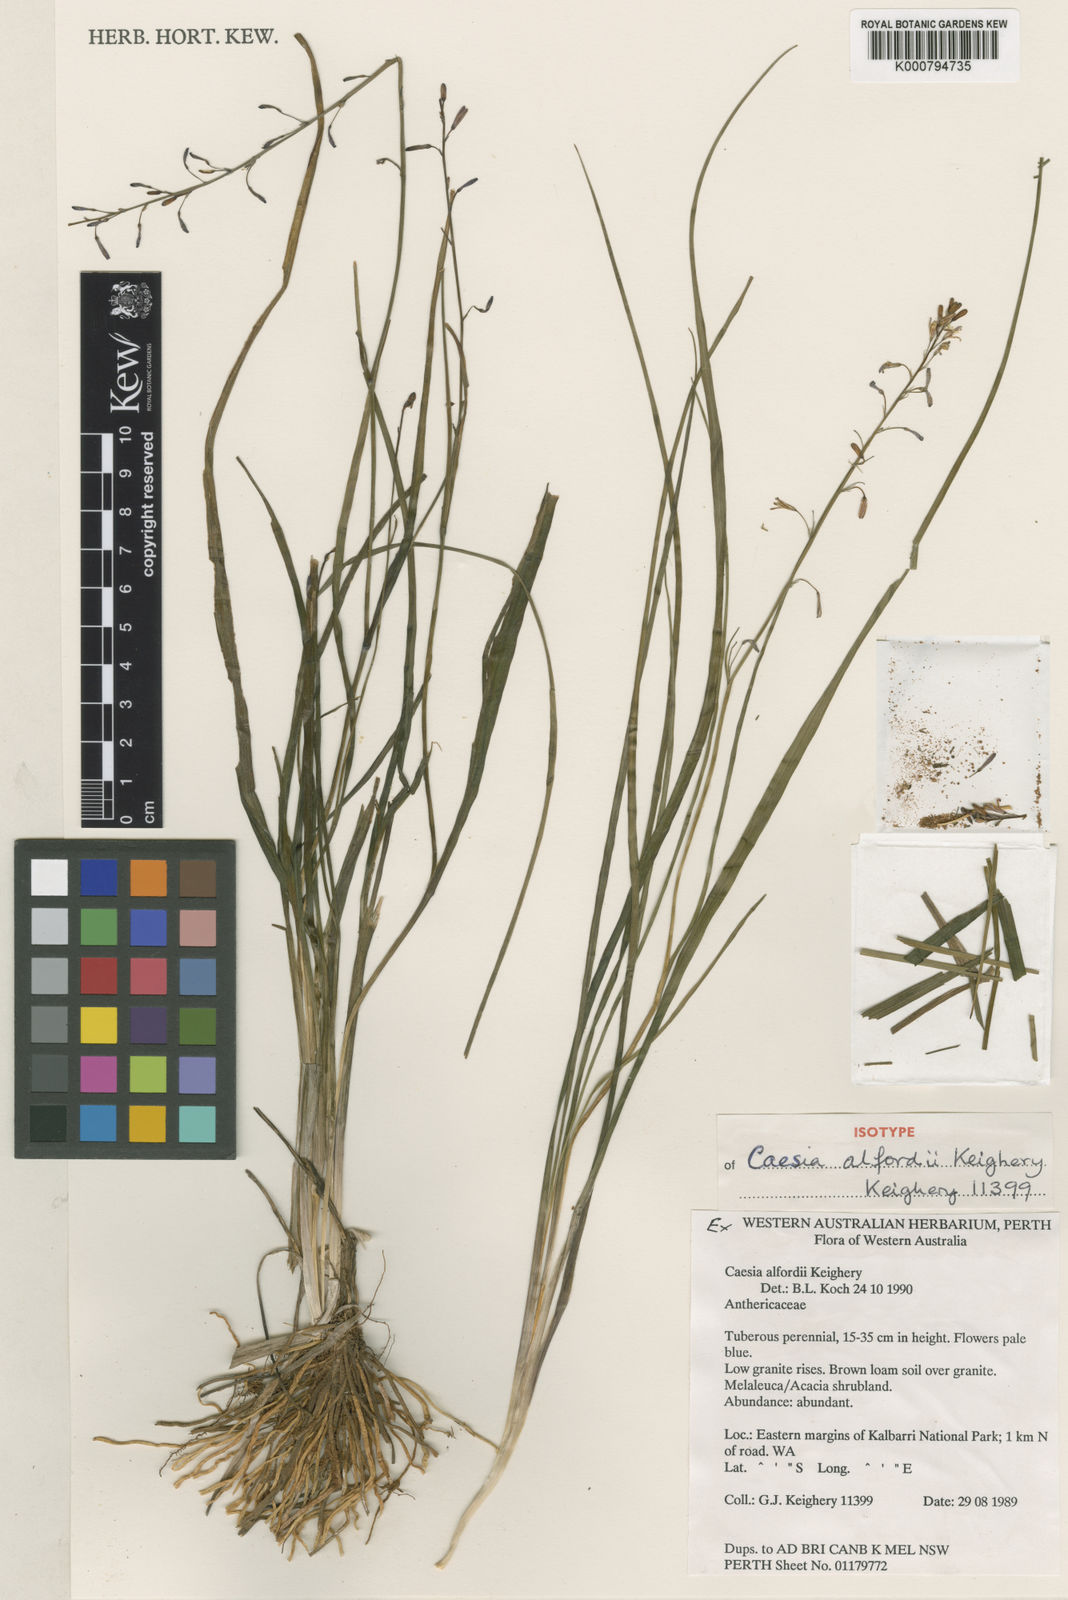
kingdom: Plantae
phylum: Tracheophyta
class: Liliopsida
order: Asparagales
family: Asphodelaceae
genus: Caesia
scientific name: Caesia
